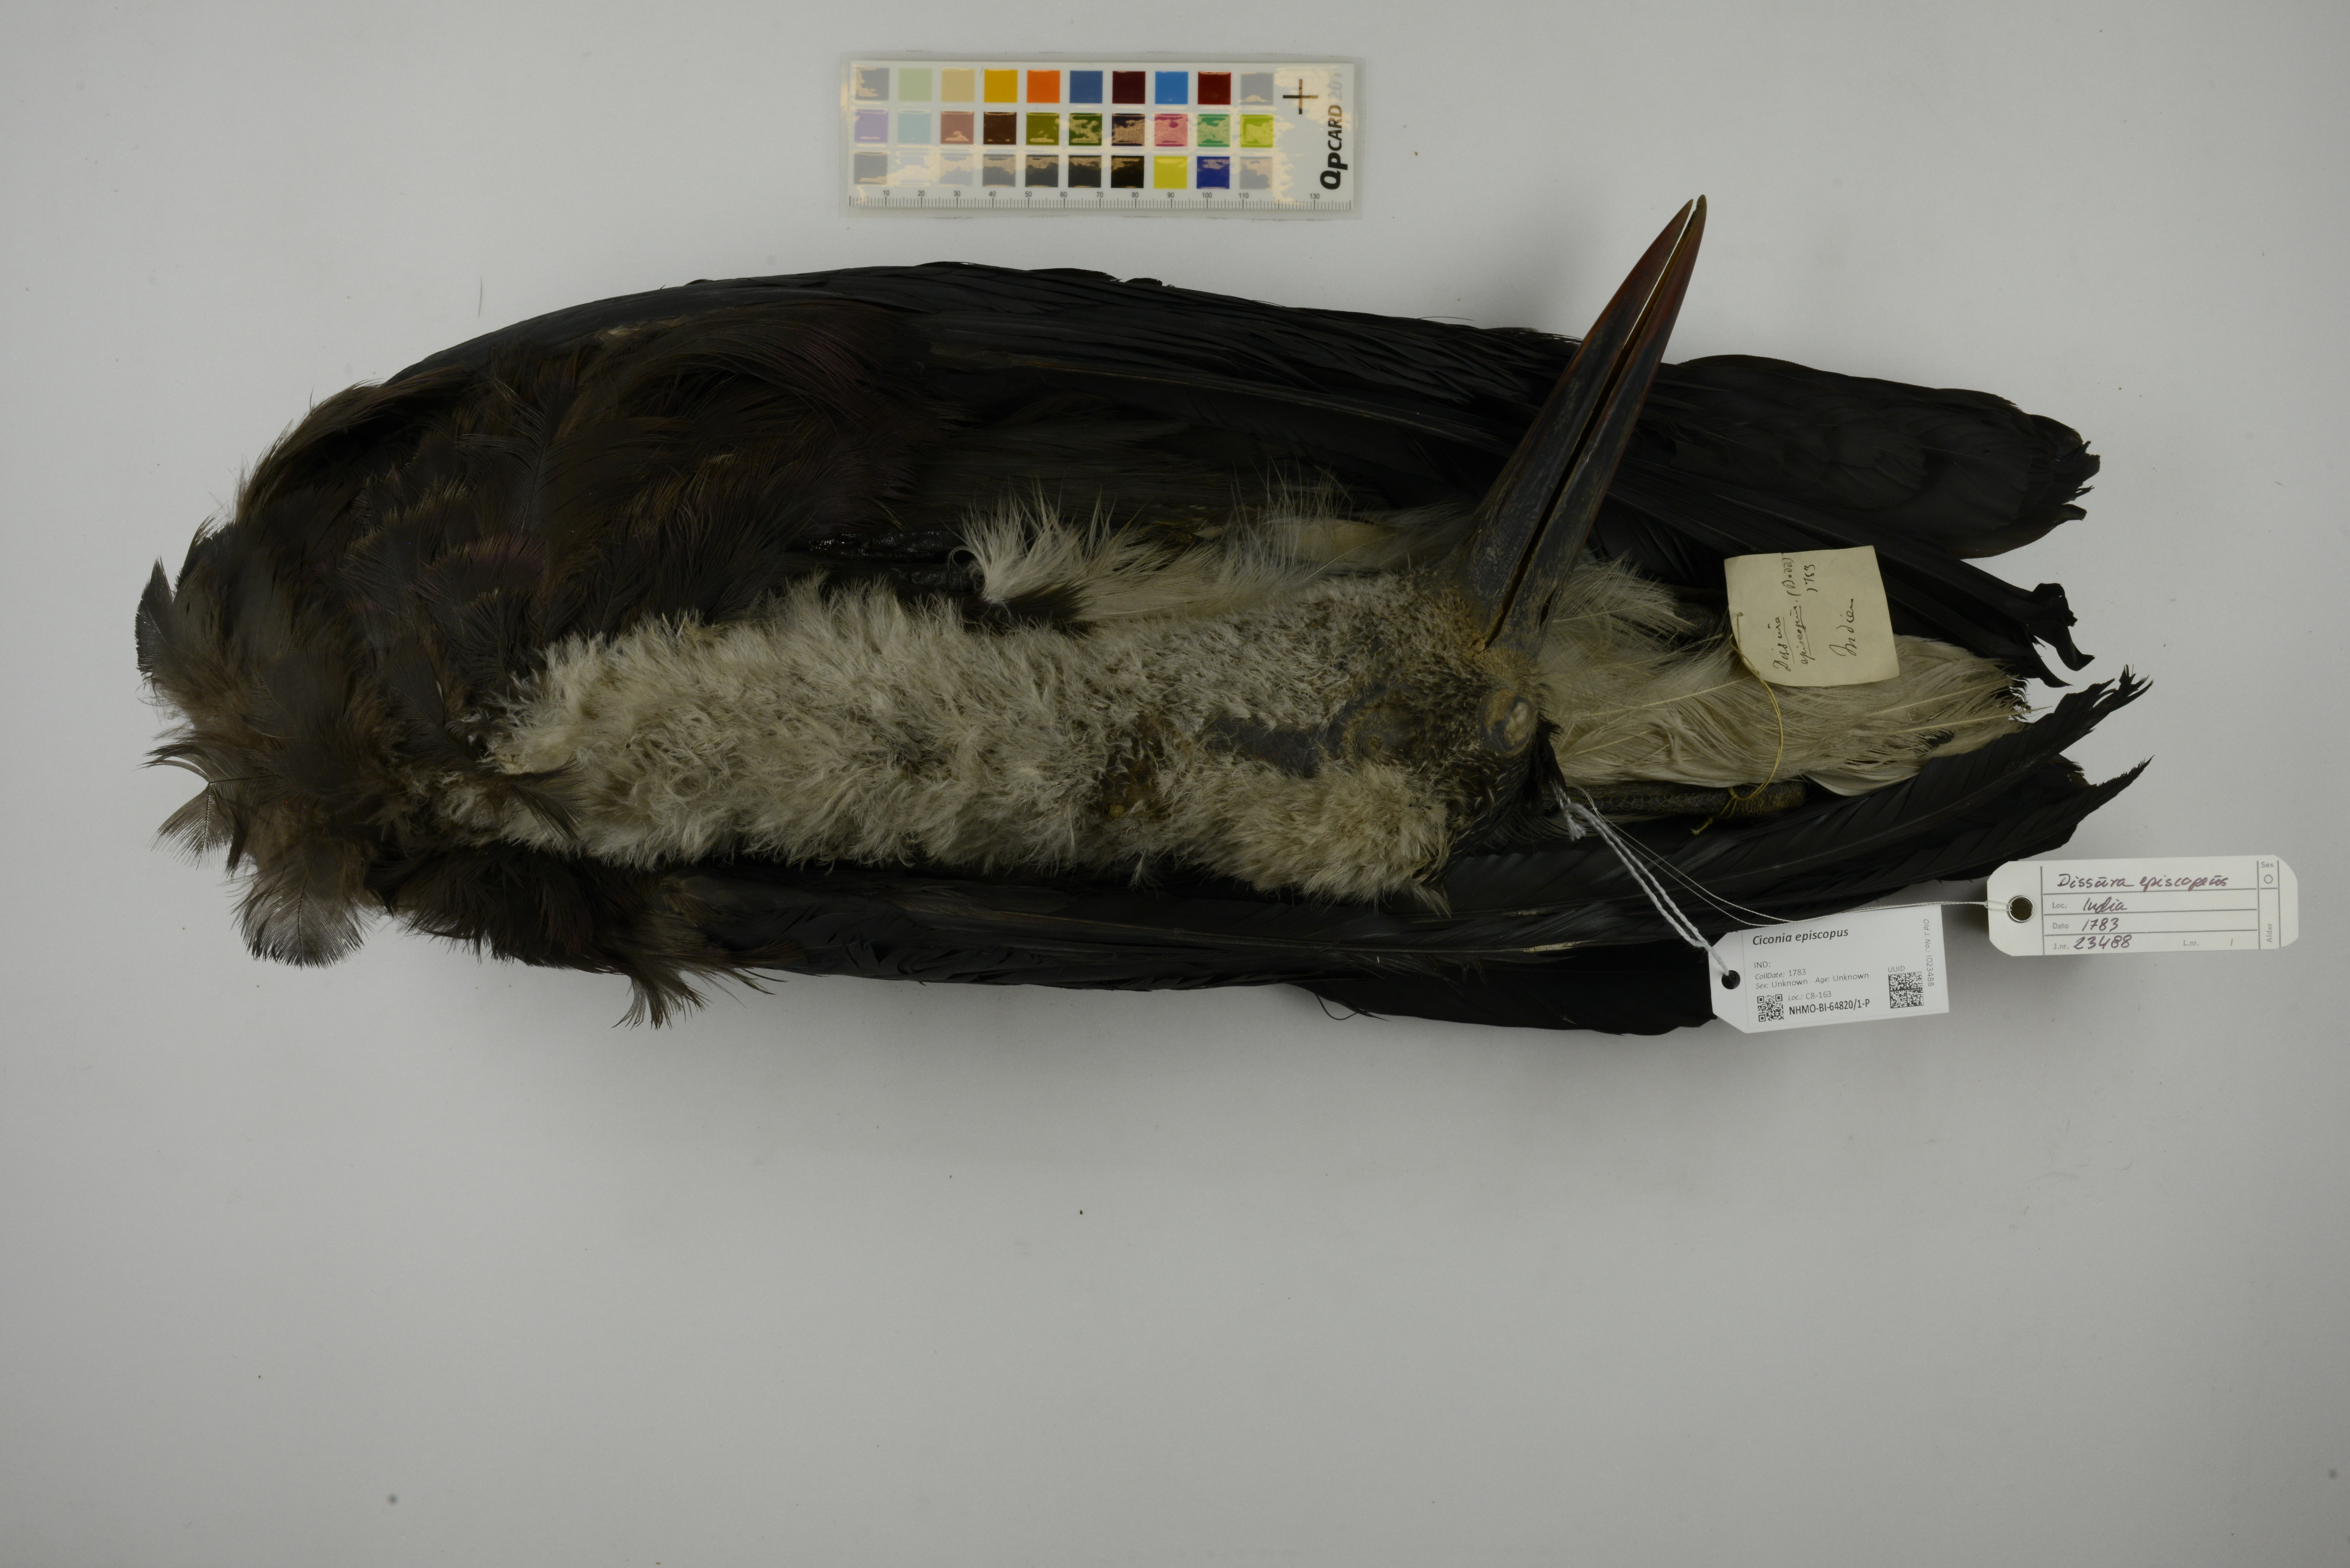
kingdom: Animalia
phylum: Chordata
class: Aves
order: Ciconiiformes
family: Ciconiidae
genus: Ciconia
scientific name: Ciconia episcopus
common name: Woolly-necked stork
